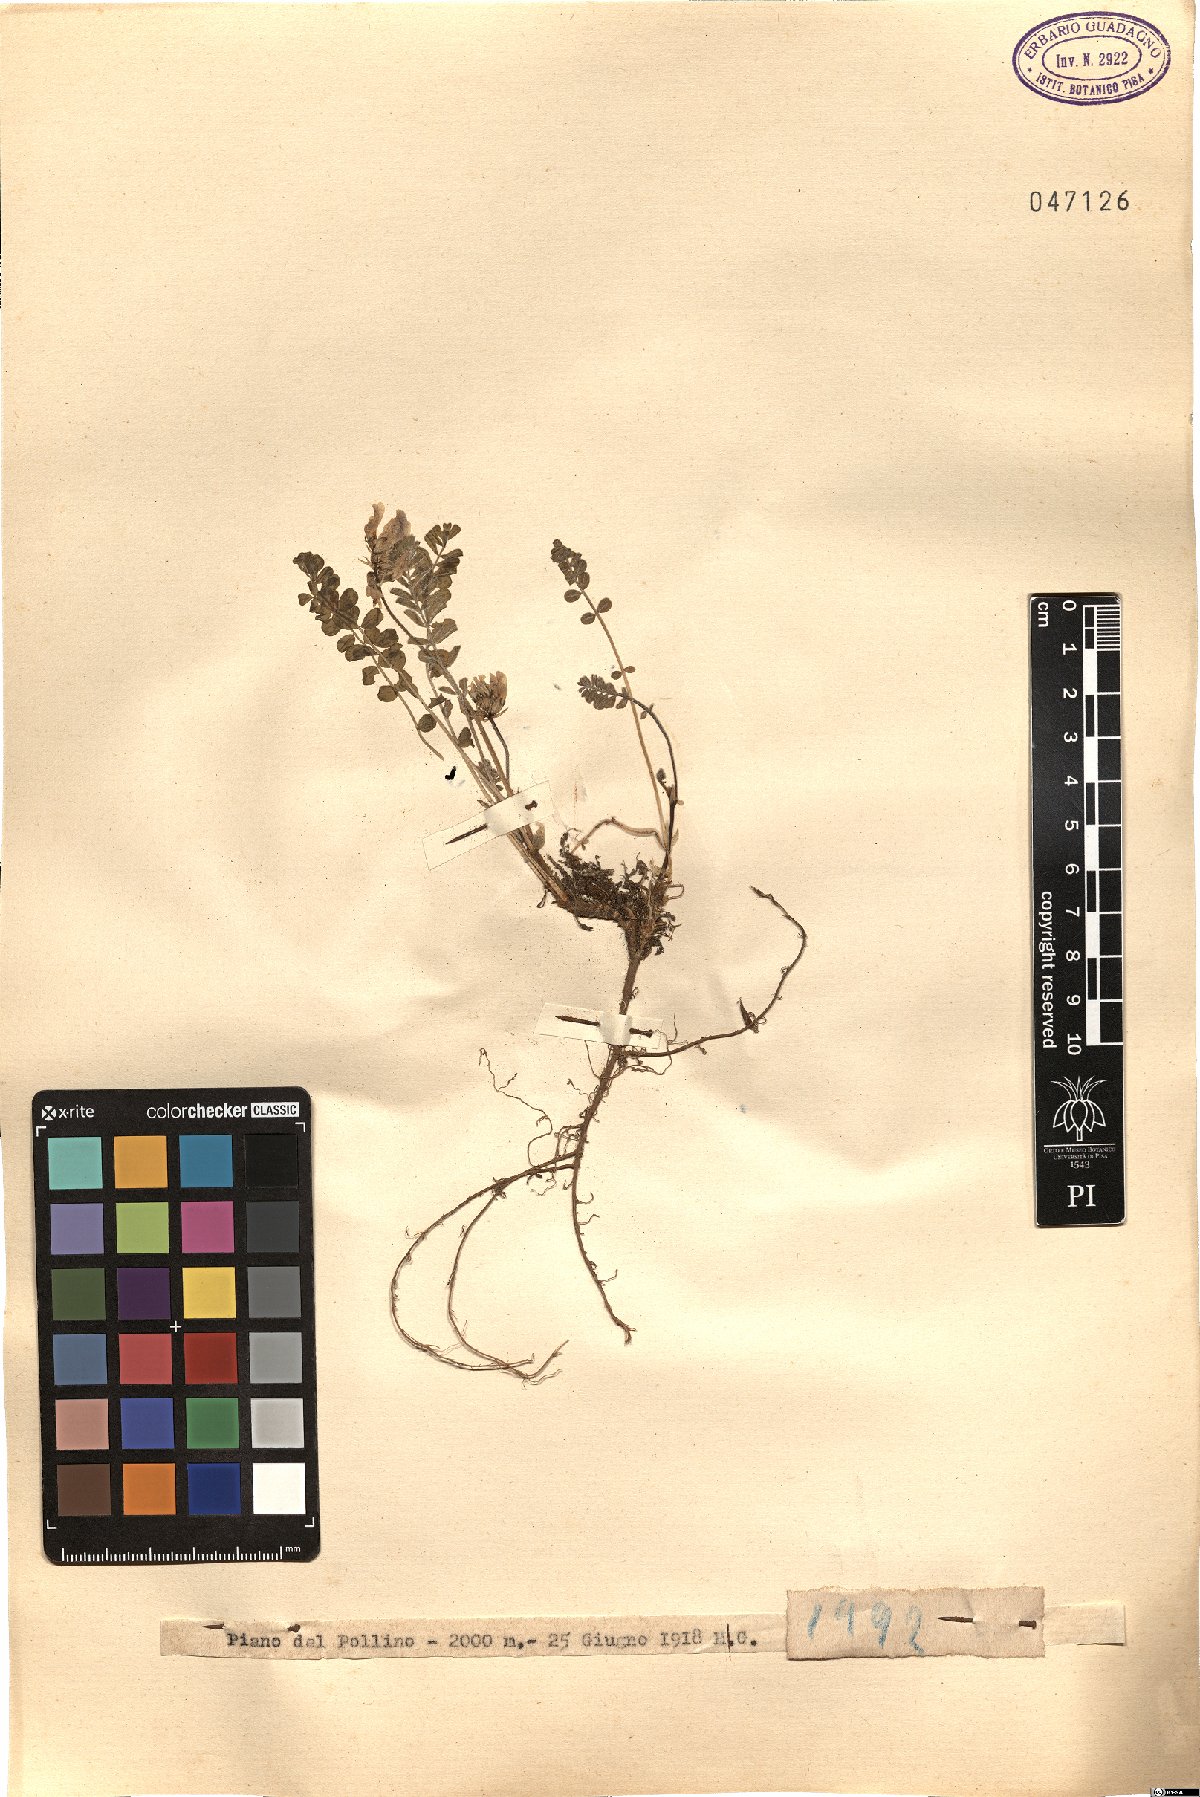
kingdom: Plantae
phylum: Tracheophyta
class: Magnoliopsida
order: Fabales
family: Fabaceae
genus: Astragalus
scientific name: Astragalus
